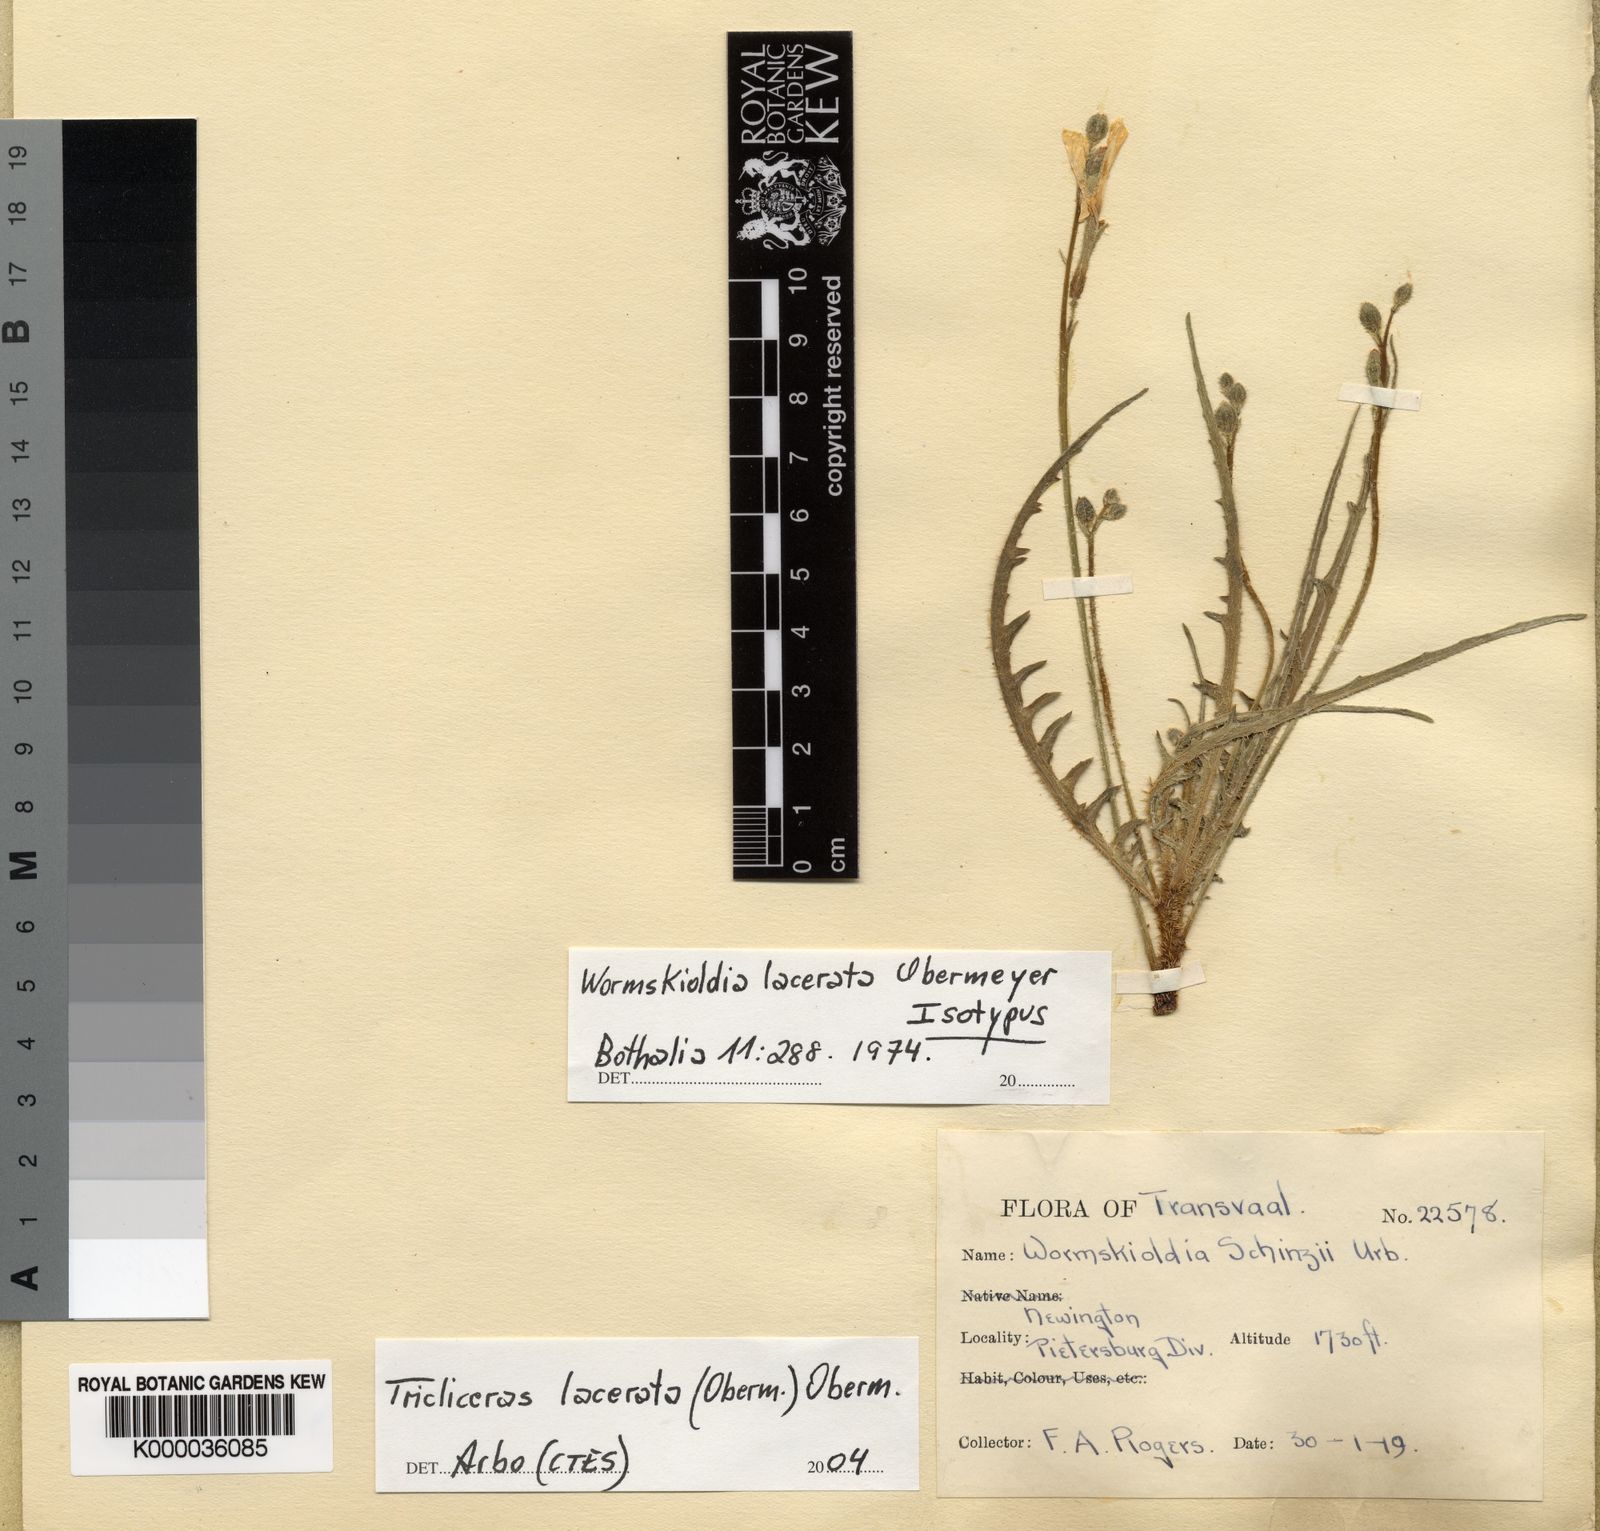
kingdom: Plantae
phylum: Tracheophyta
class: Magnoliopsida
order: Malpighiales
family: Turneraceae
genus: Streptopetalum
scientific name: Streptopetalum
